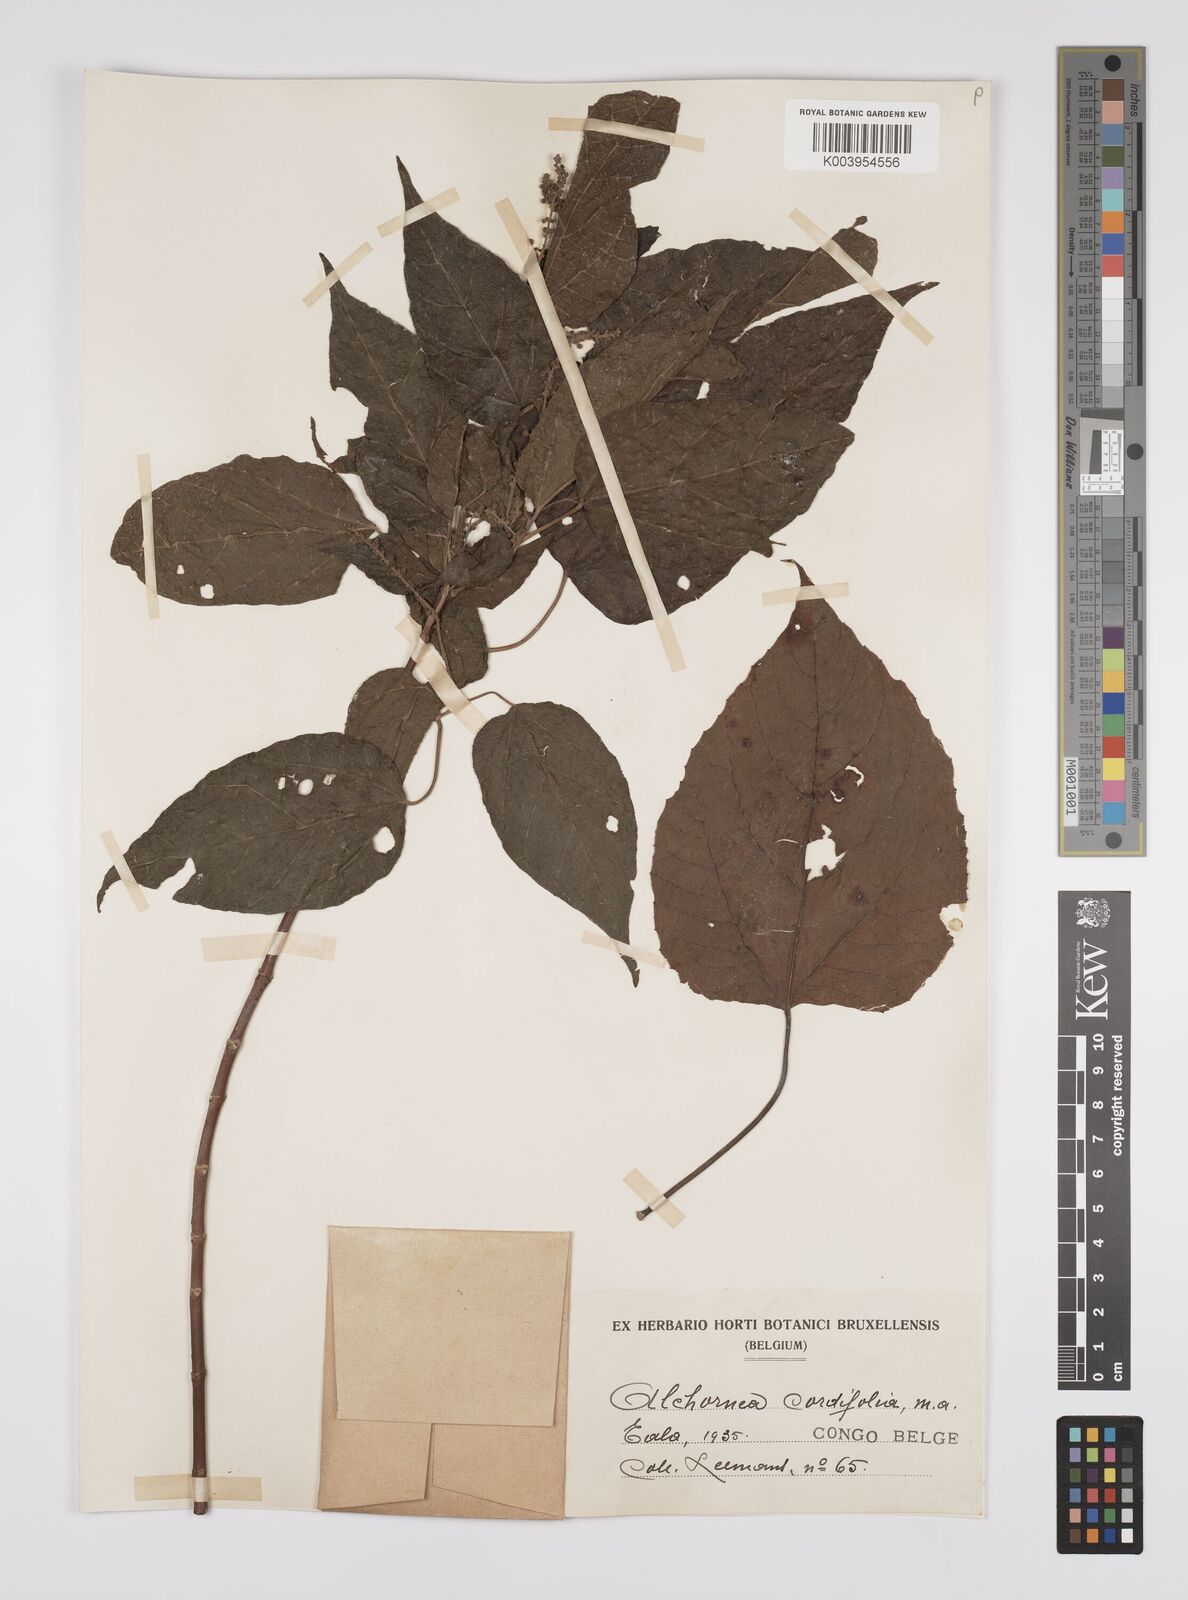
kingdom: Plantae
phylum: Tracheophyta
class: Magnoliopsida
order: Malpighiales
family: Euphorbiaceae
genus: Alchornea
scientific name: Alchornea cordifolia
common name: Christmasbush
